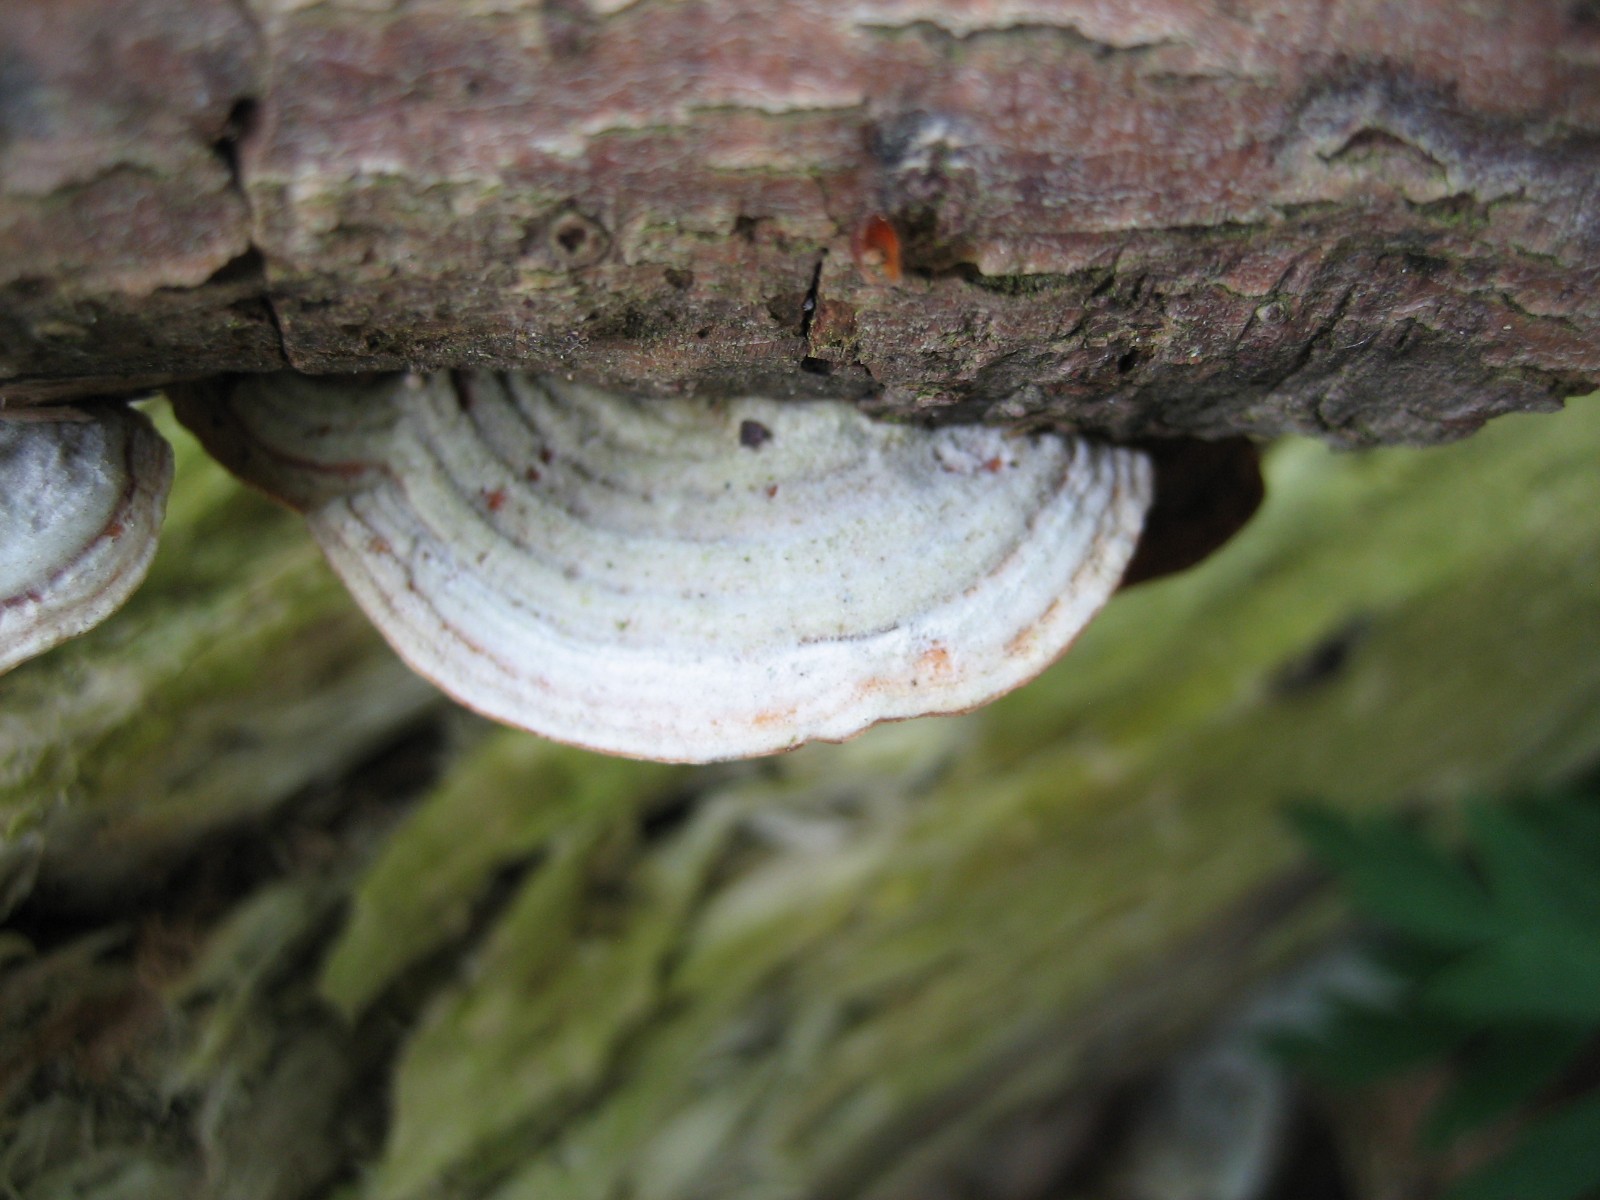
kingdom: Fungi
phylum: Basidiomycota
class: Agaricomycetes
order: Russulales
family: Stereaceae
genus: Stereum
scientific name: Stereum subtomentosum
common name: smuk lædersvamp
